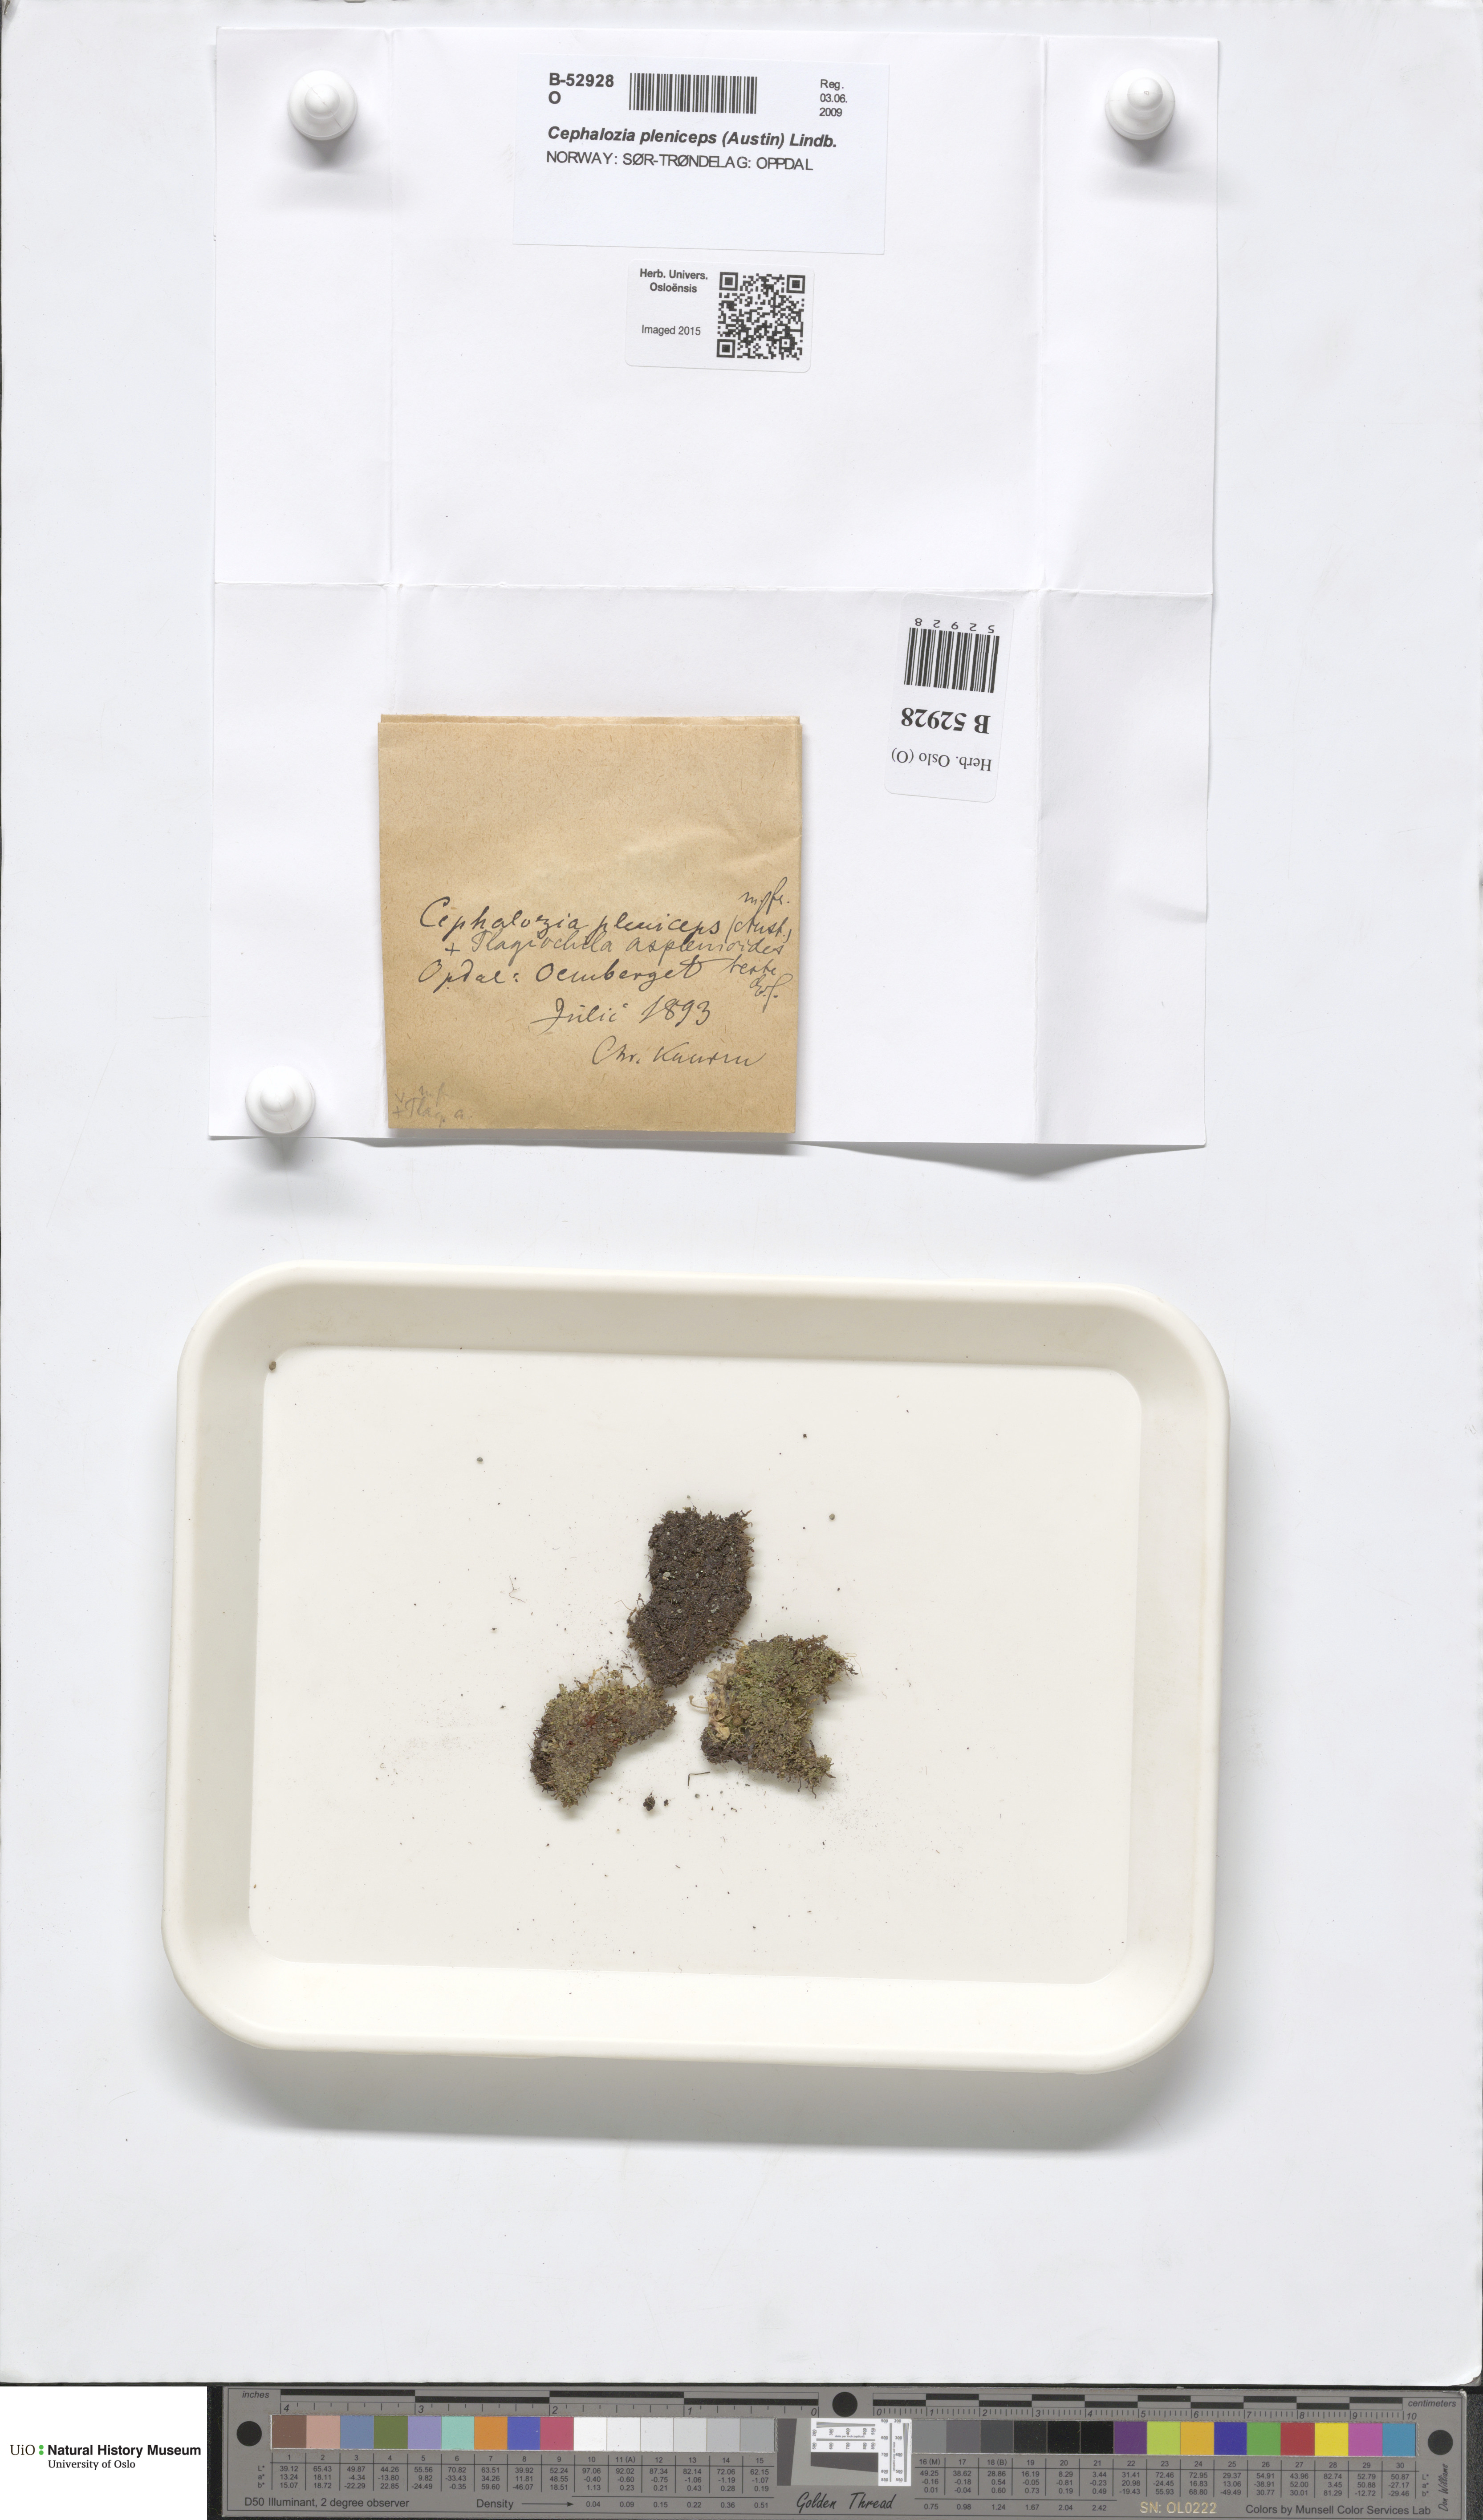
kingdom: Plantae
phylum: Marchantiophyta
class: Jungermanniopsida
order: Jungermanniales
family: Cephaloziaceae
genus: Fuscocephaloziopsis
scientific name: Fuscocephaloziopsis pleniceps
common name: Blunt pincerwort
